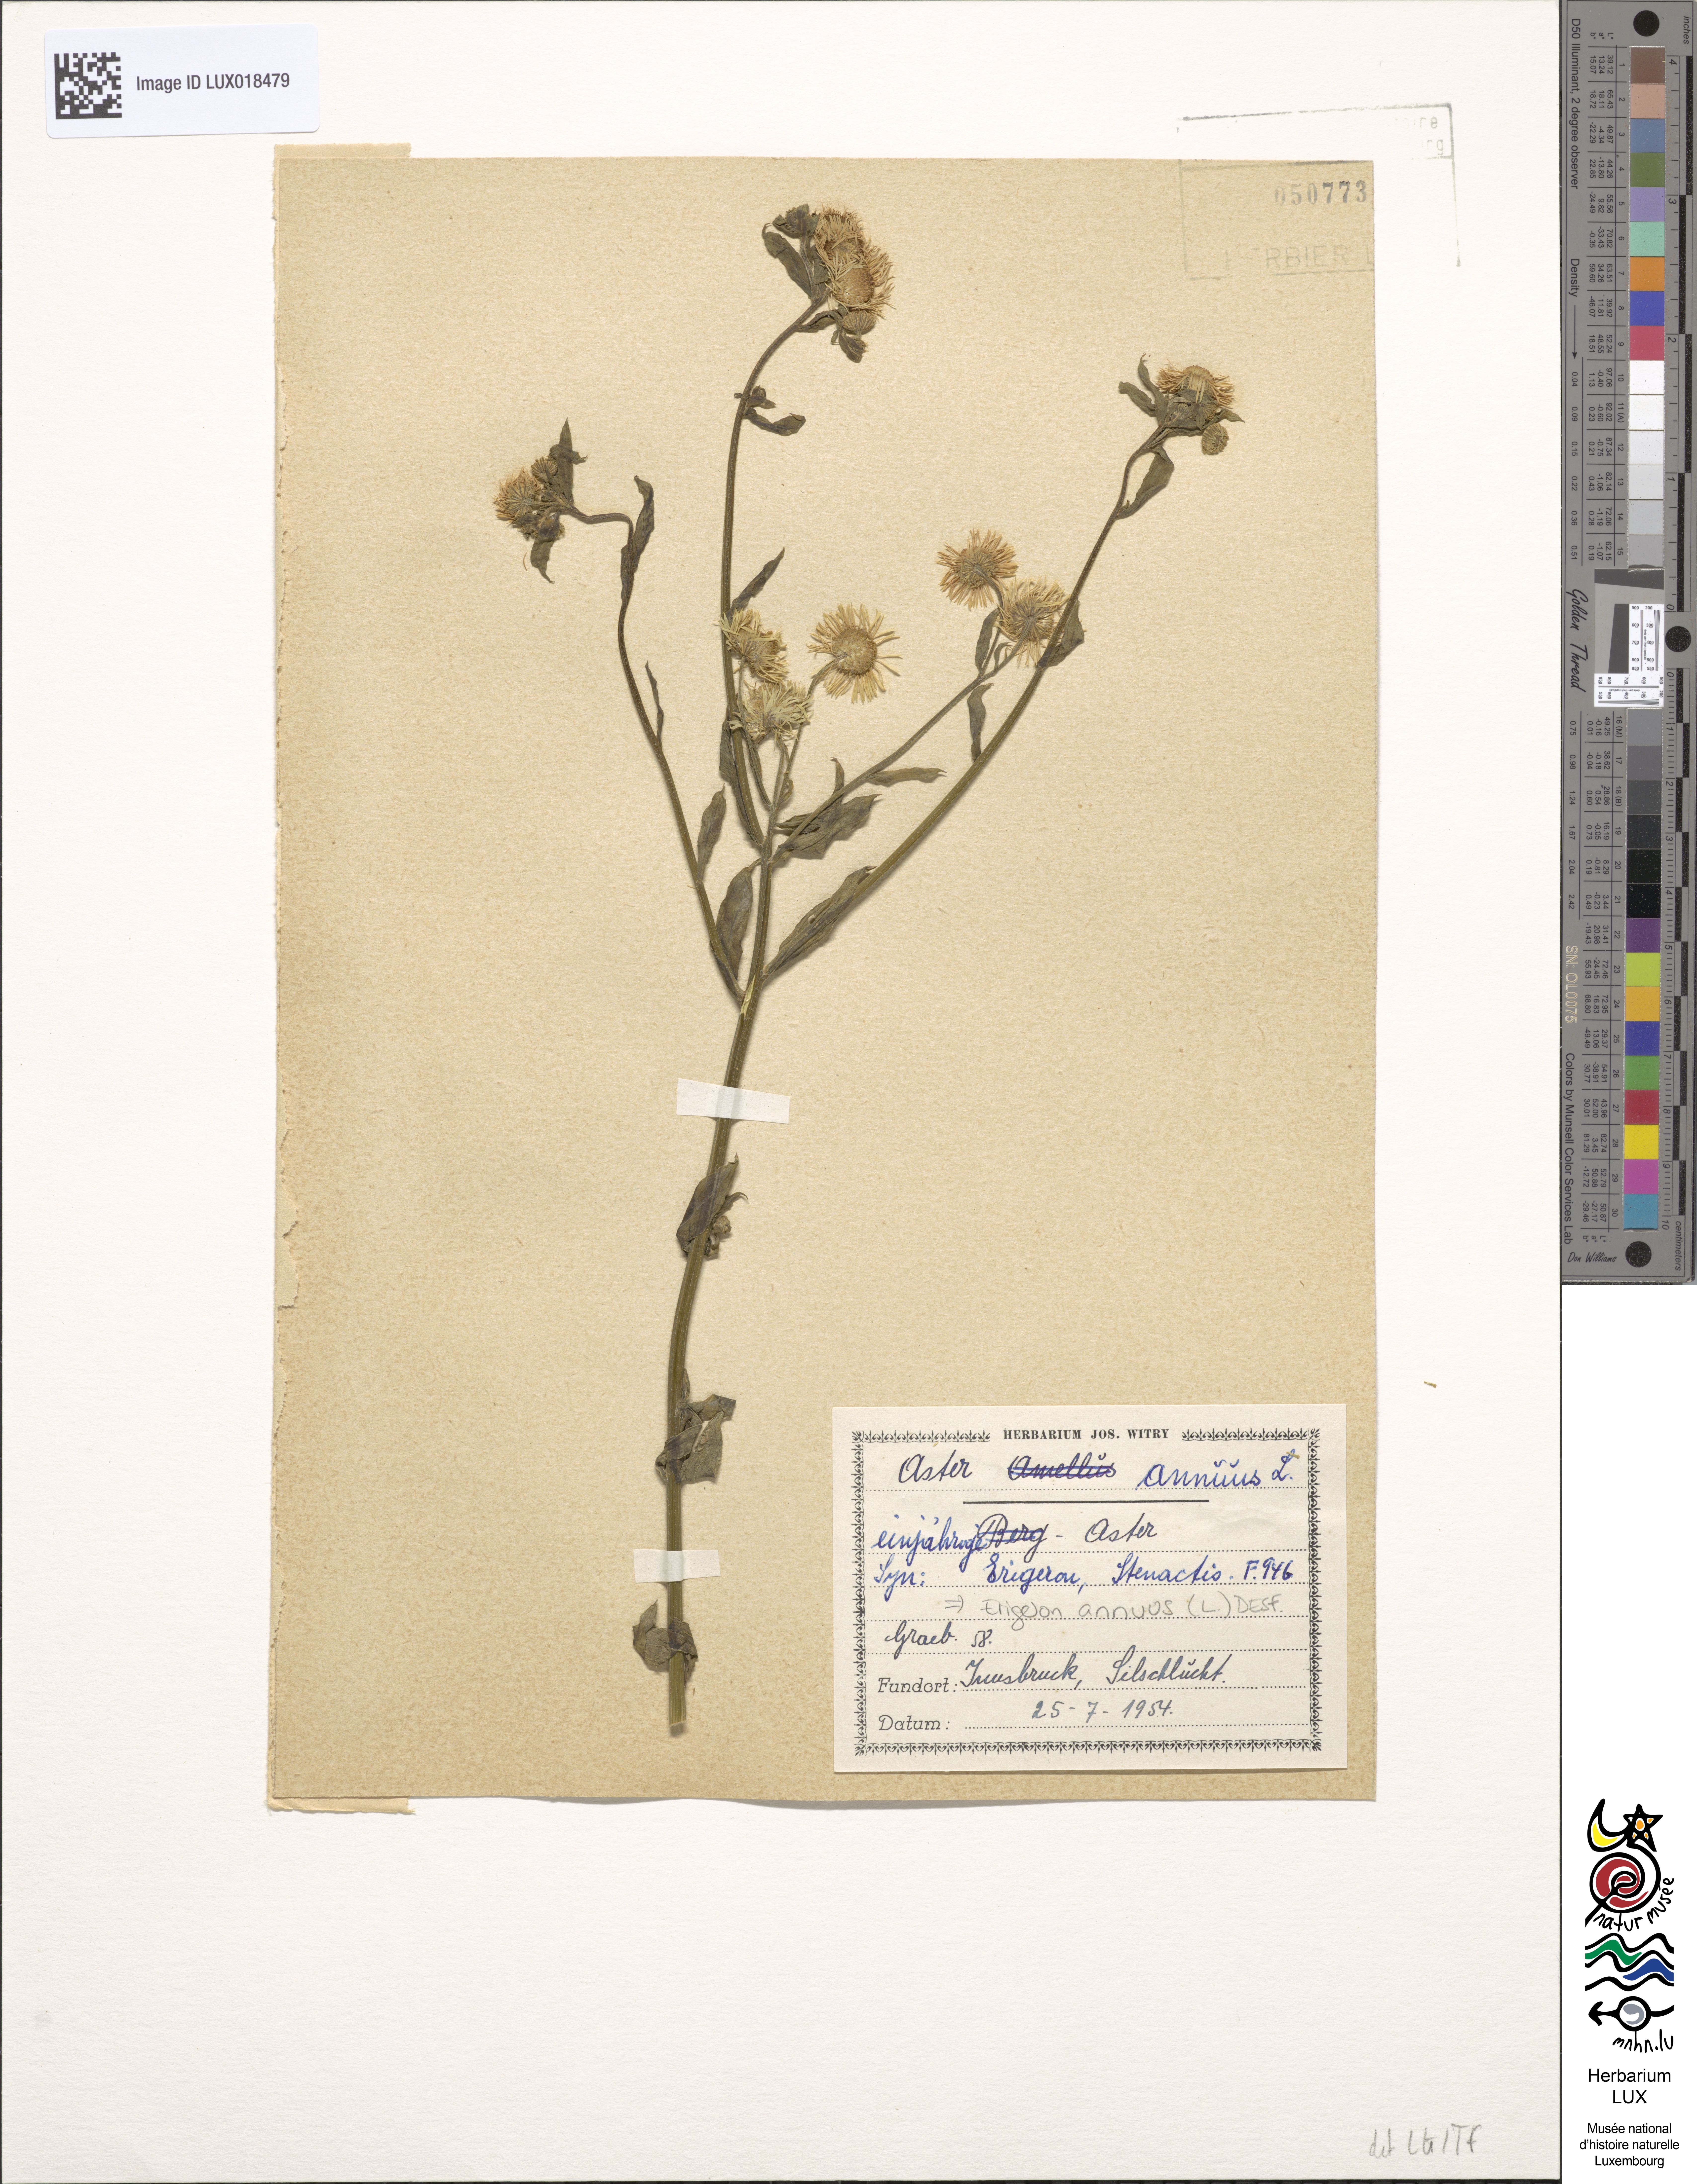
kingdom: Plantae
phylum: Tracheophyta
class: Magnoliopsida
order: Asterales
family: Asteraceae
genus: Erigeron
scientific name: Erigeron annuus
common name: Tall fleabane
